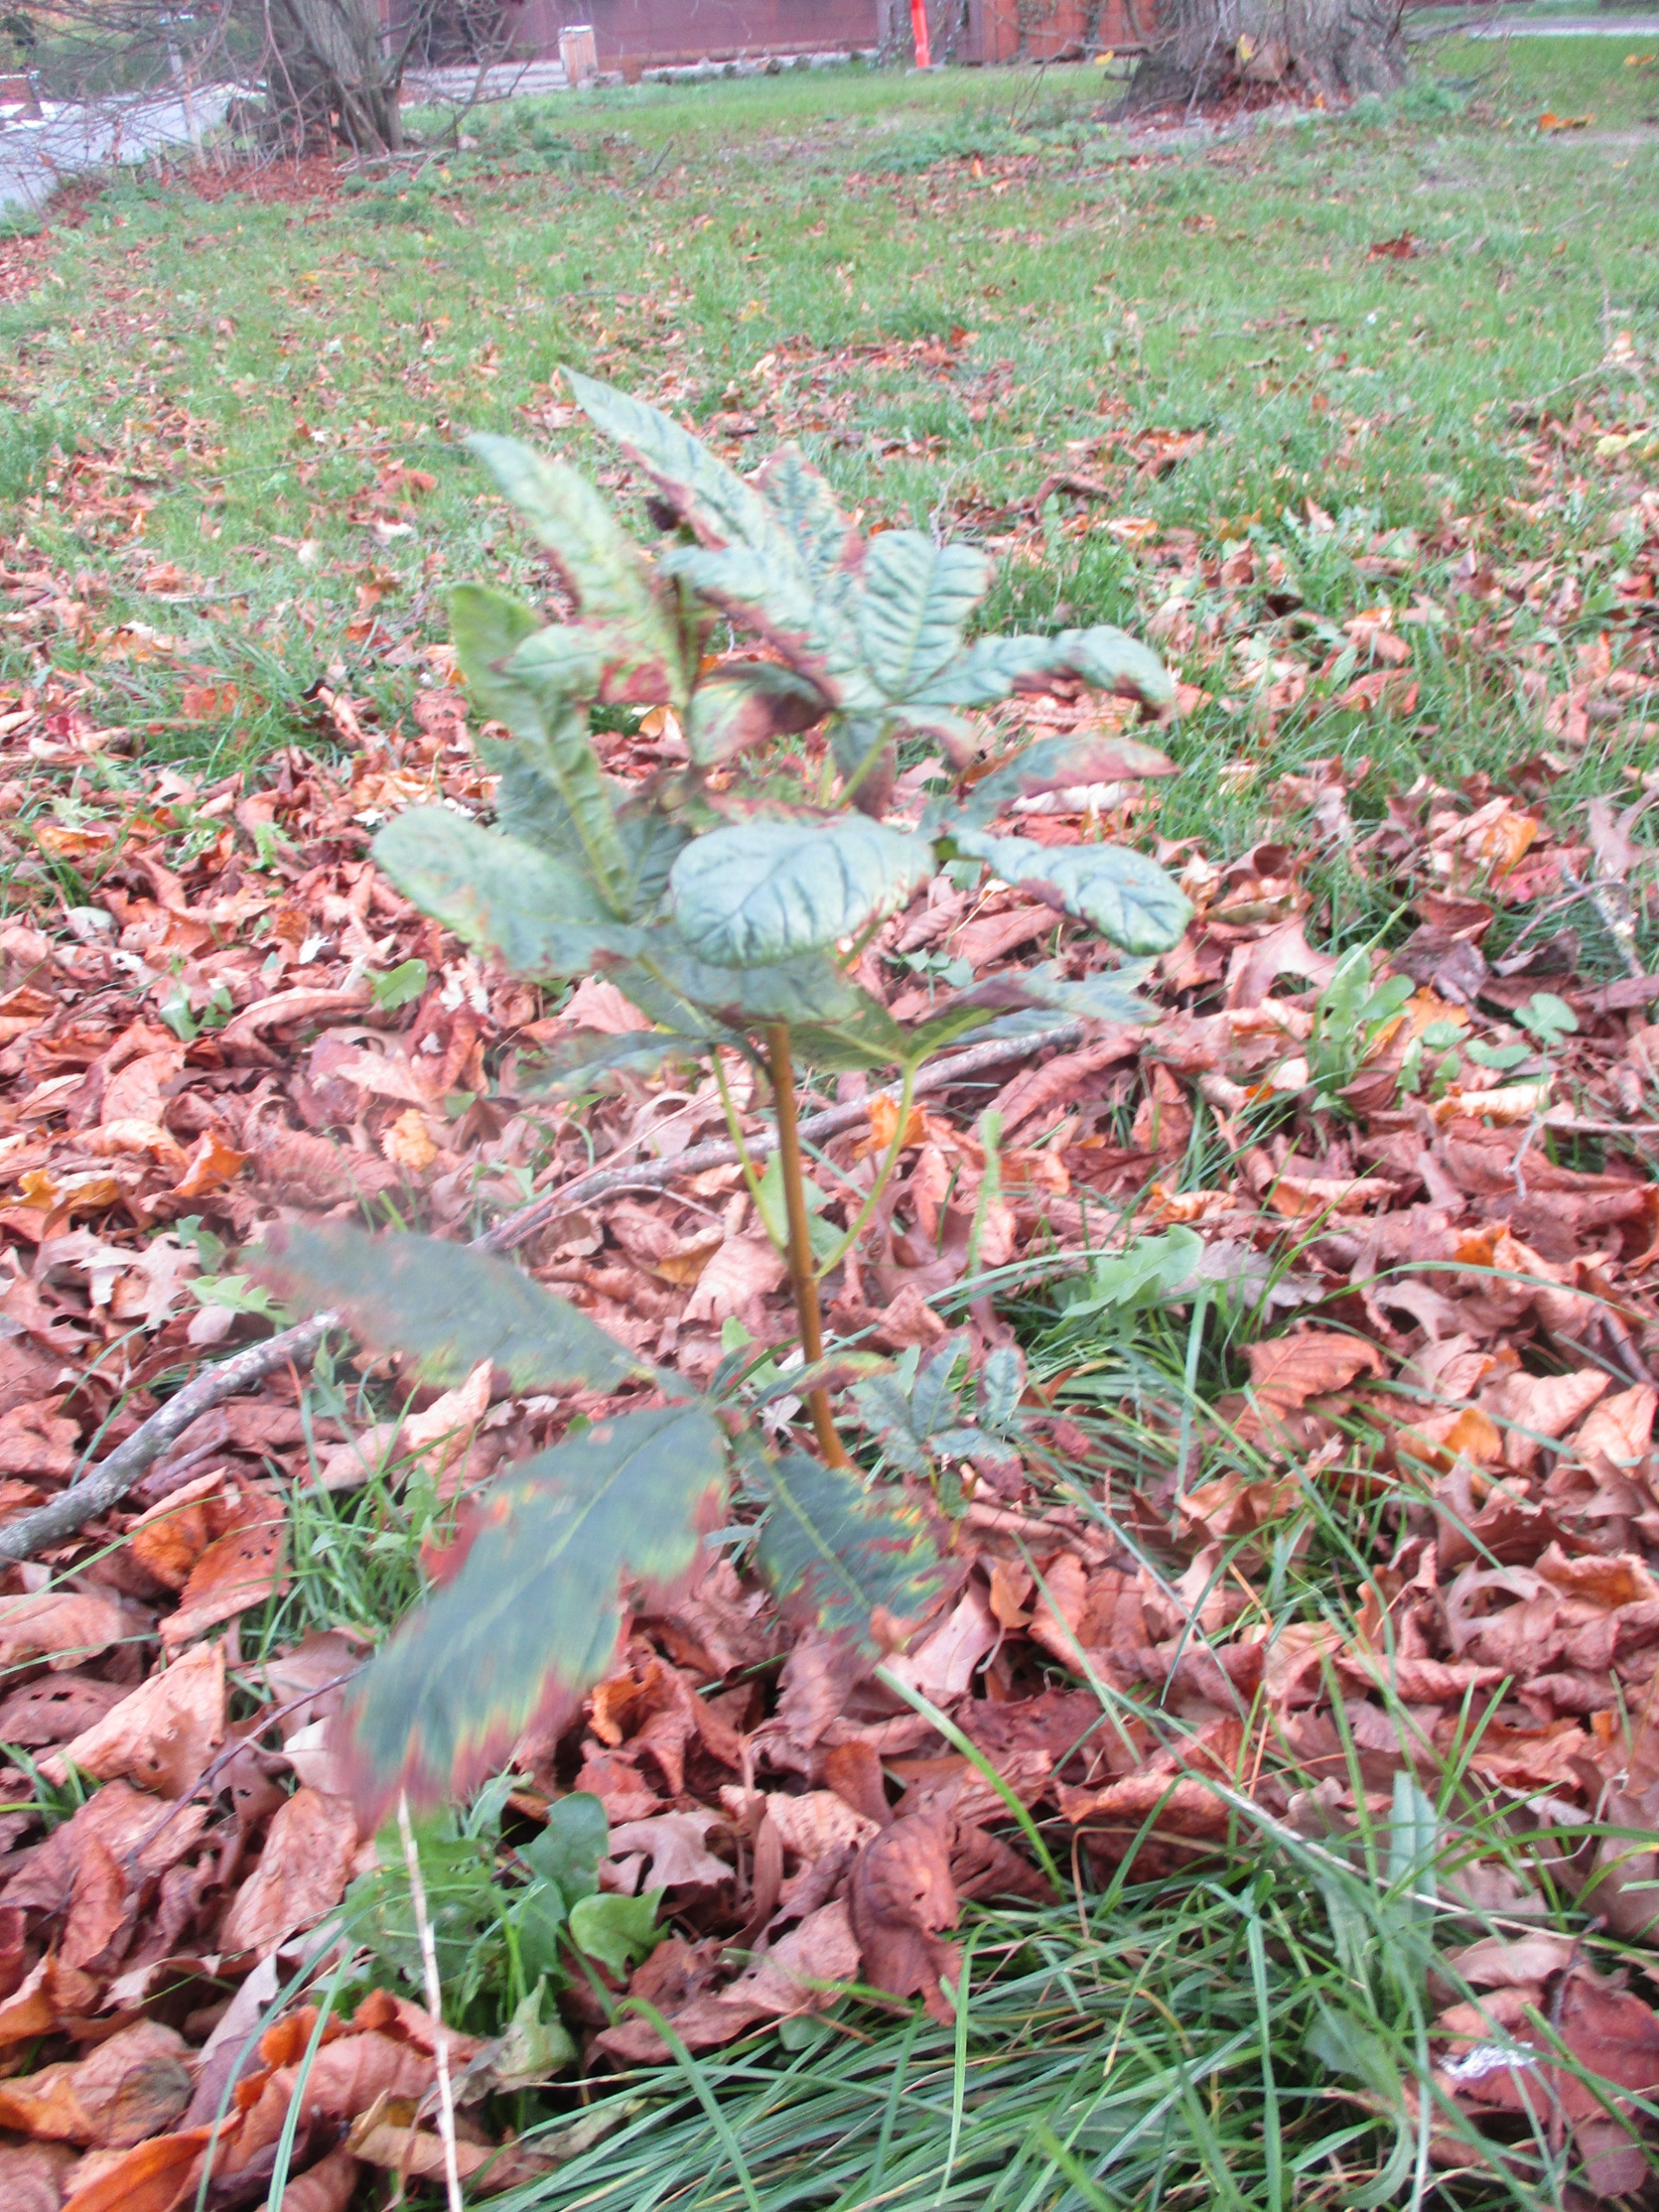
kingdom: Plantae
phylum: Tracheophyta
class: Magnoliopsida
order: Sapindales
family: Sapindaceae
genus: Aesculus
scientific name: Aesculus hippocastanum
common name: Hestekastanie
